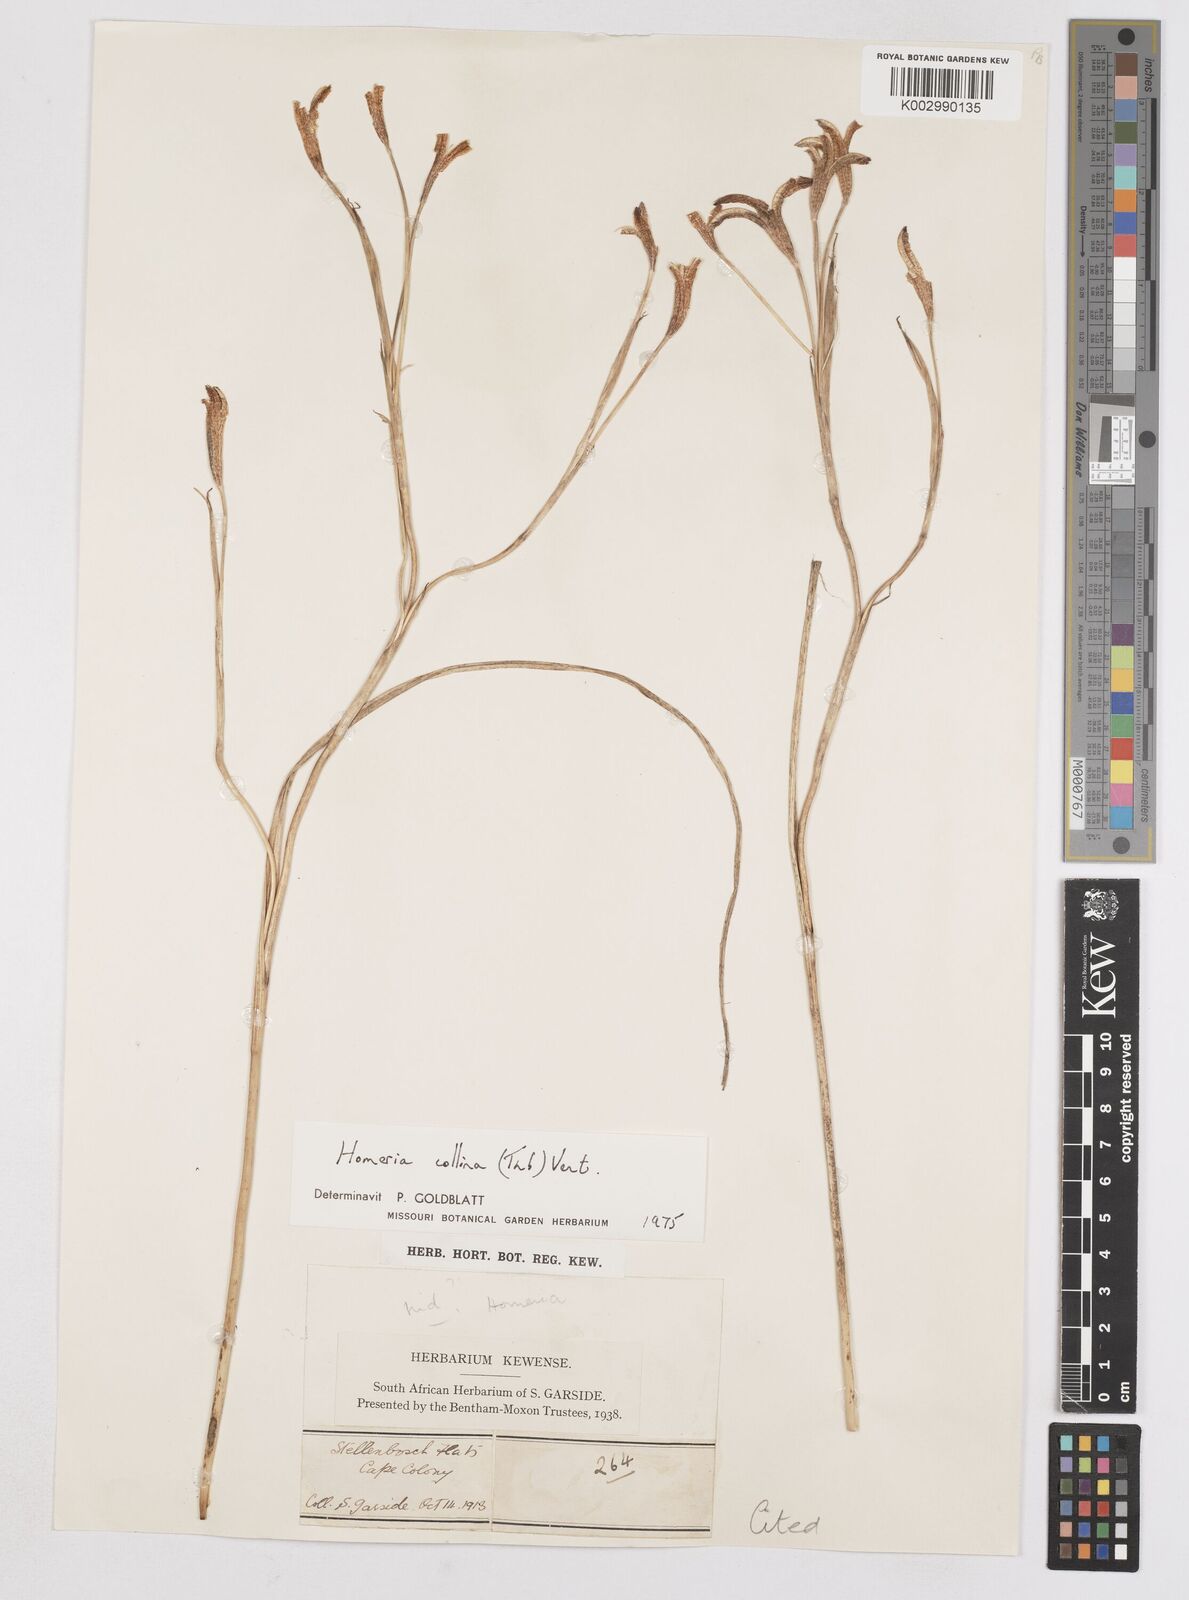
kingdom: Plantae
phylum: Tracheophyta
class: Liliopsida
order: Asparagales
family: Iridaceae
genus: Moraea
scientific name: Moraea collina
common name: Cape-tulip
